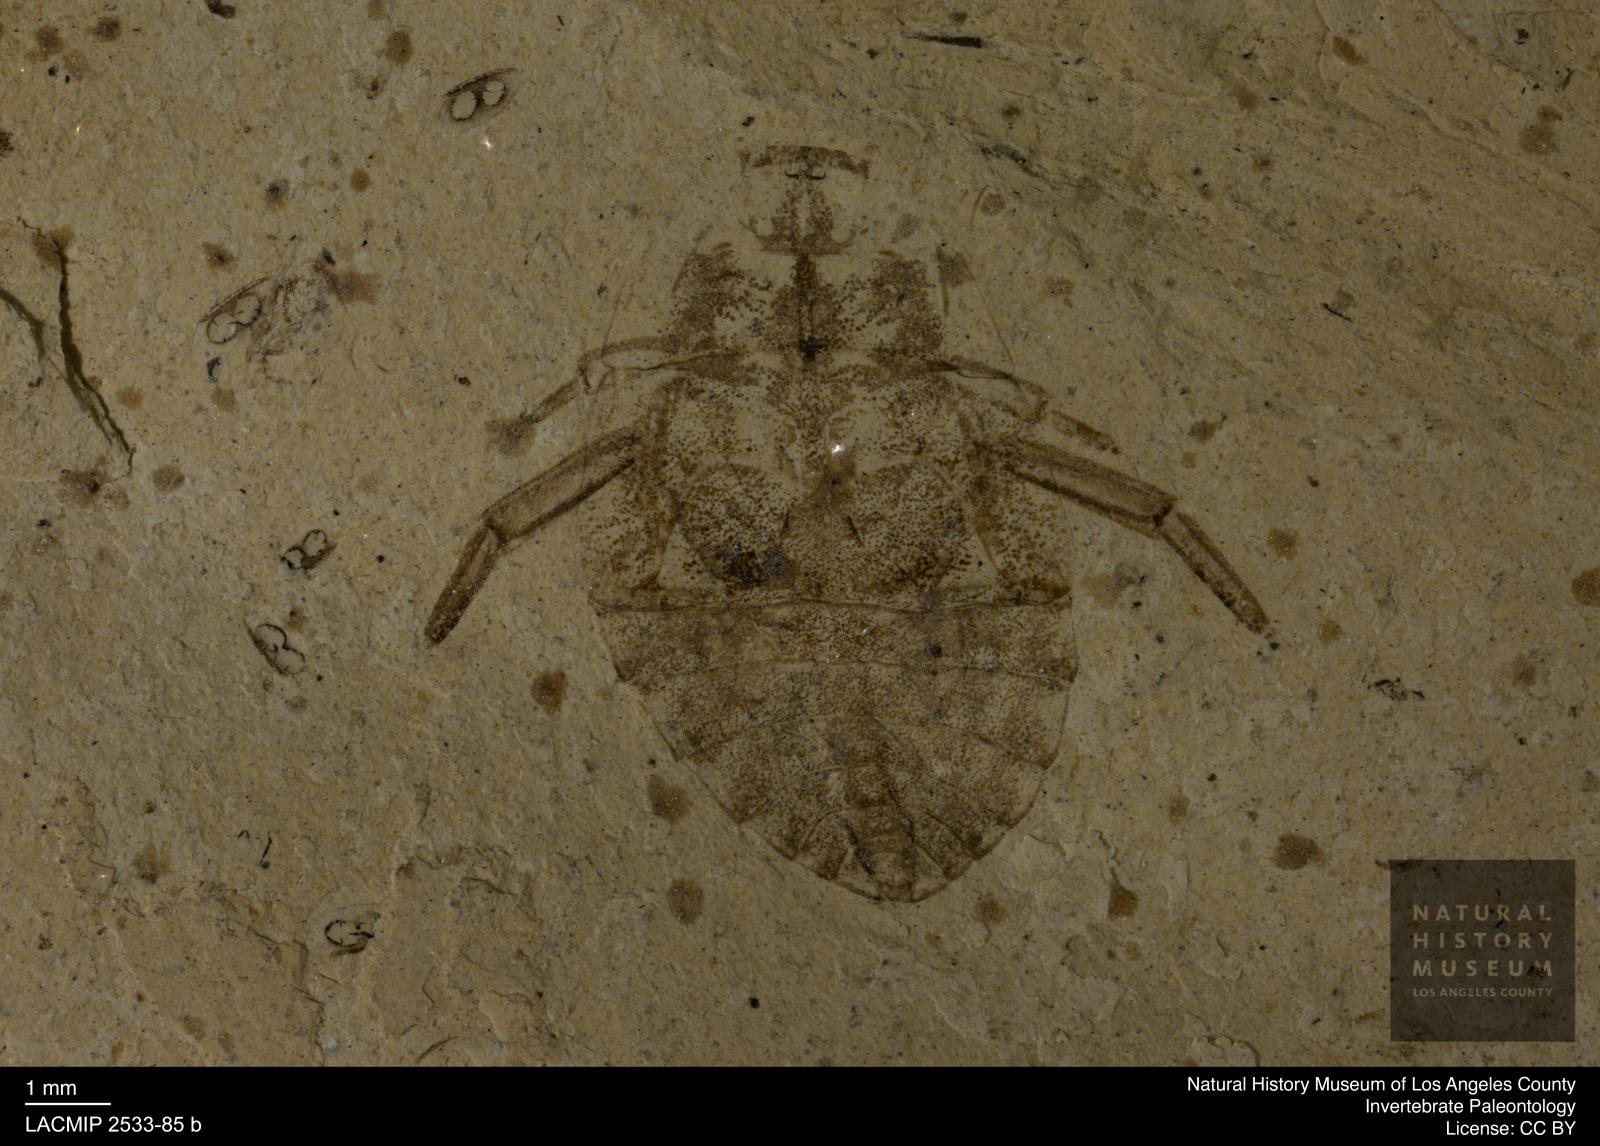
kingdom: Animalia
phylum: Arthropoda
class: Insecta
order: Hemiptera
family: Naucoridae
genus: Naucoris
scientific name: Naucoris rottensis
